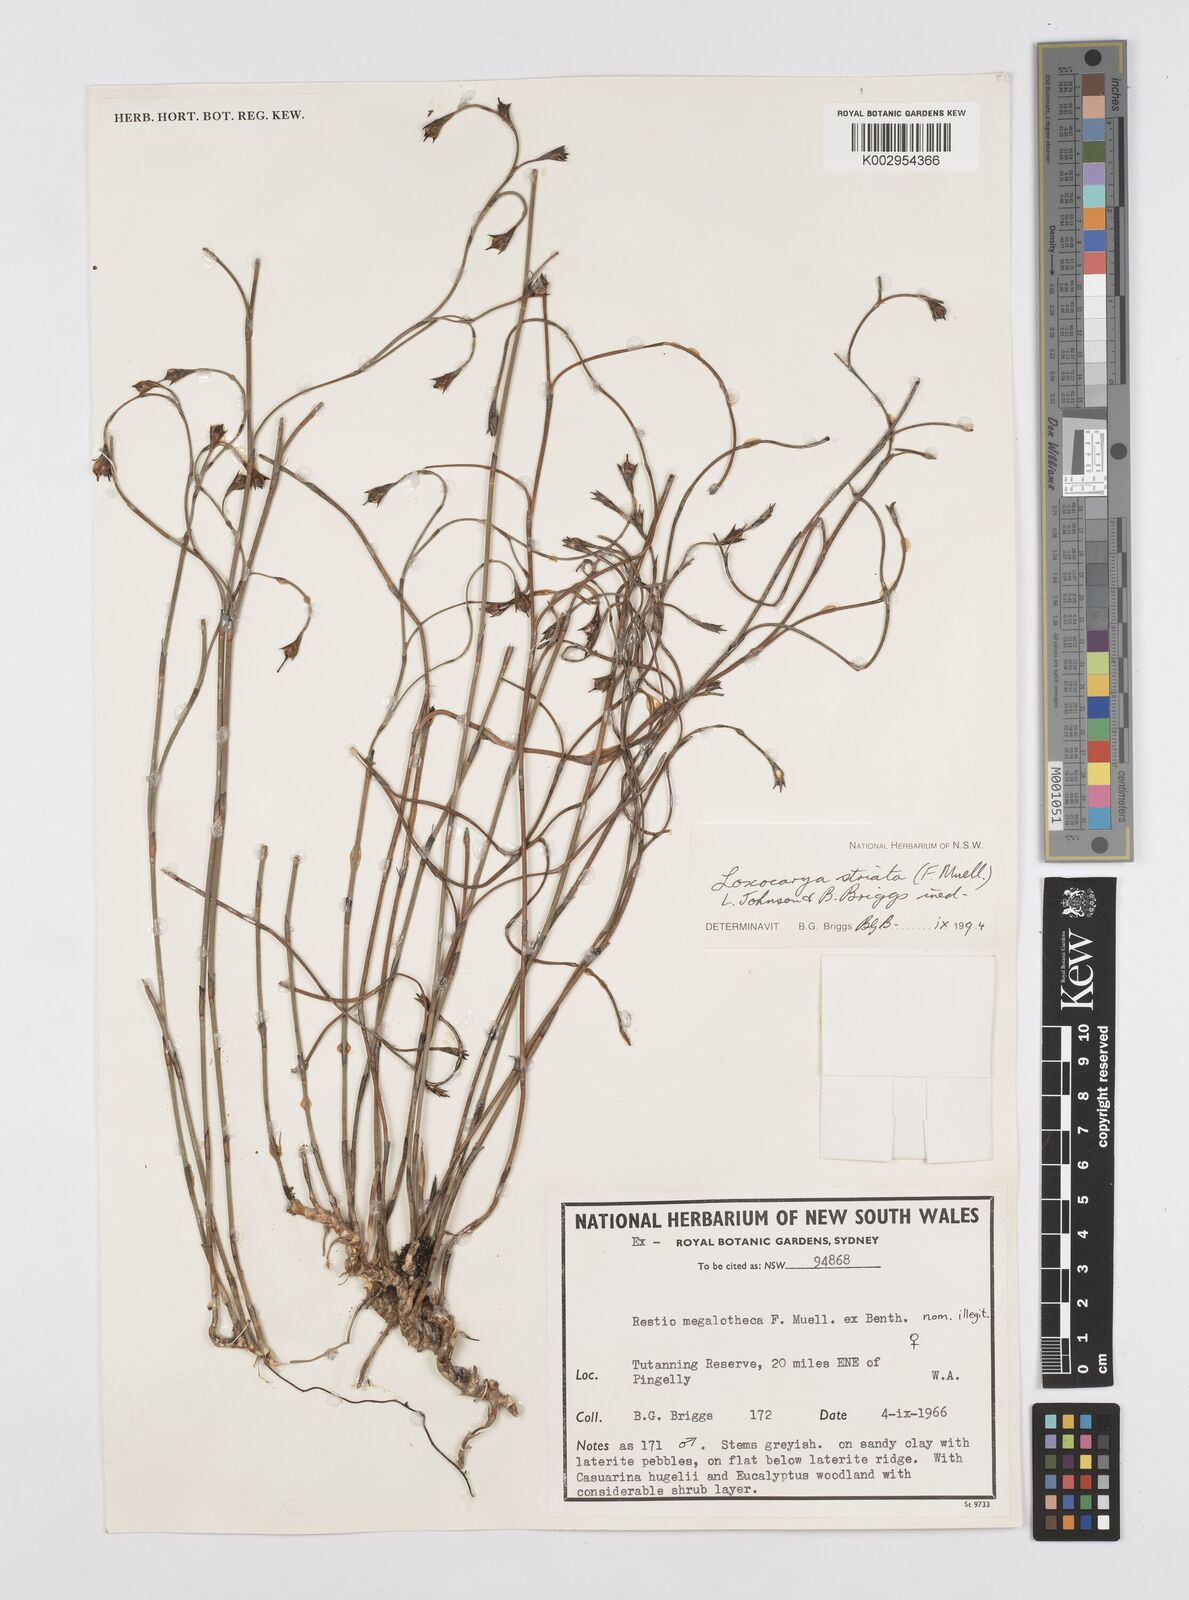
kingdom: Plantae
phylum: Tracheophyta
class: Liliopsida
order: Poales
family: Restionaceae
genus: Loxocarya
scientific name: Loxocarya striata
